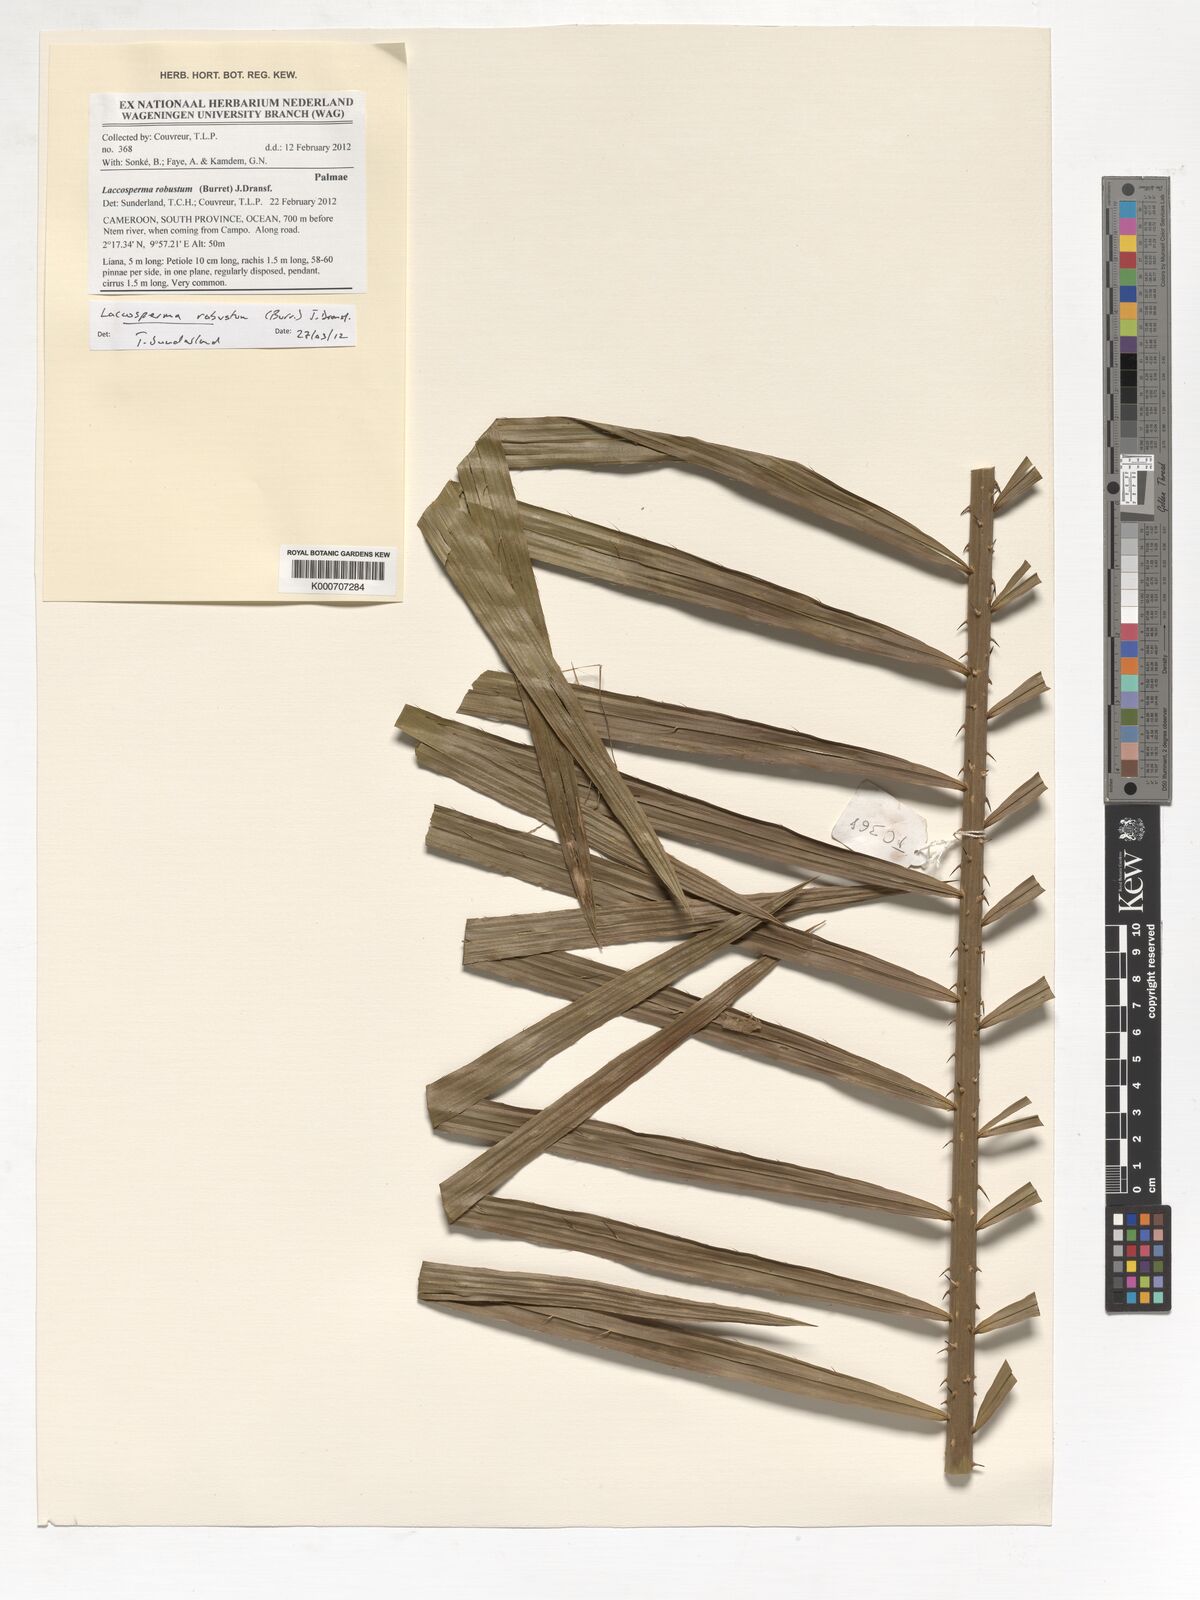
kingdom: Plantae
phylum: Tracheophyta
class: Liliopsida
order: Arecales
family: Arecaceae
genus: Laccosperma
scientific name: Laccosperma robustum
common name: Rattan
